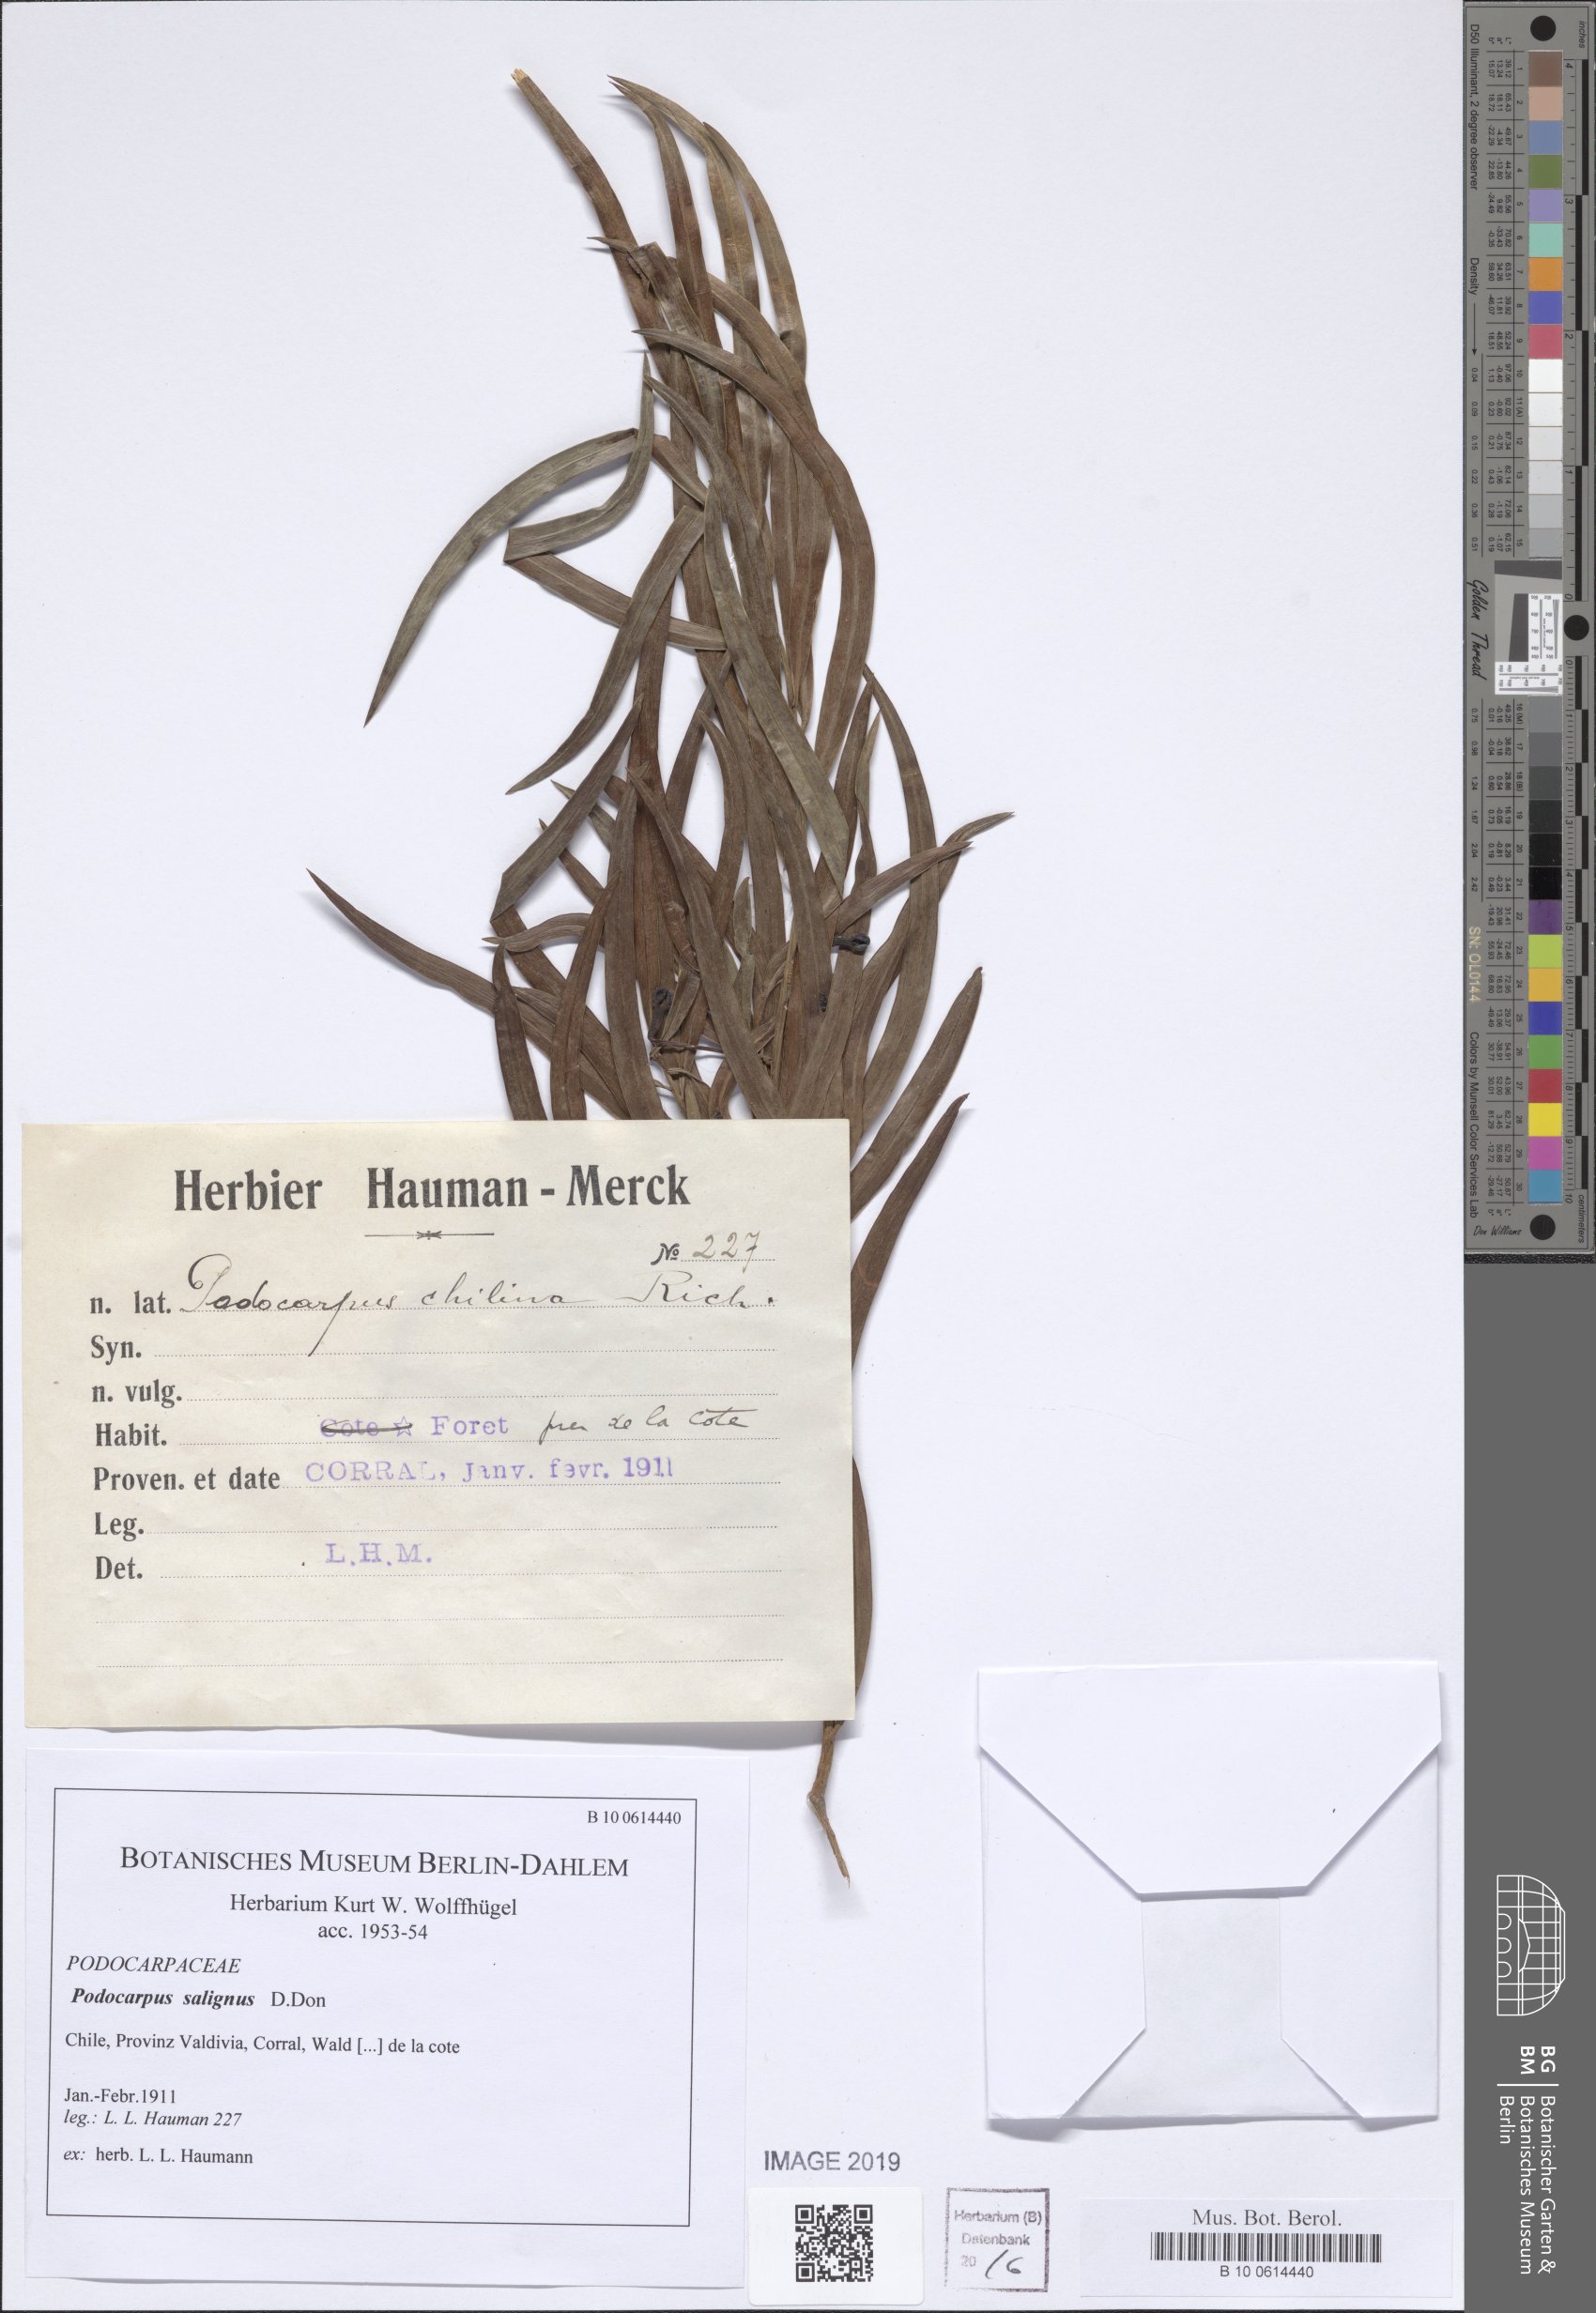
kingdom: Plantae
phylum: Tracheophyta
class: Pinopsida
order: Pinales
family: Podocarpaceae
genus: Podocarpus
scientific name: Podocarpus salignus
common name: Willow-leaf podocarp
